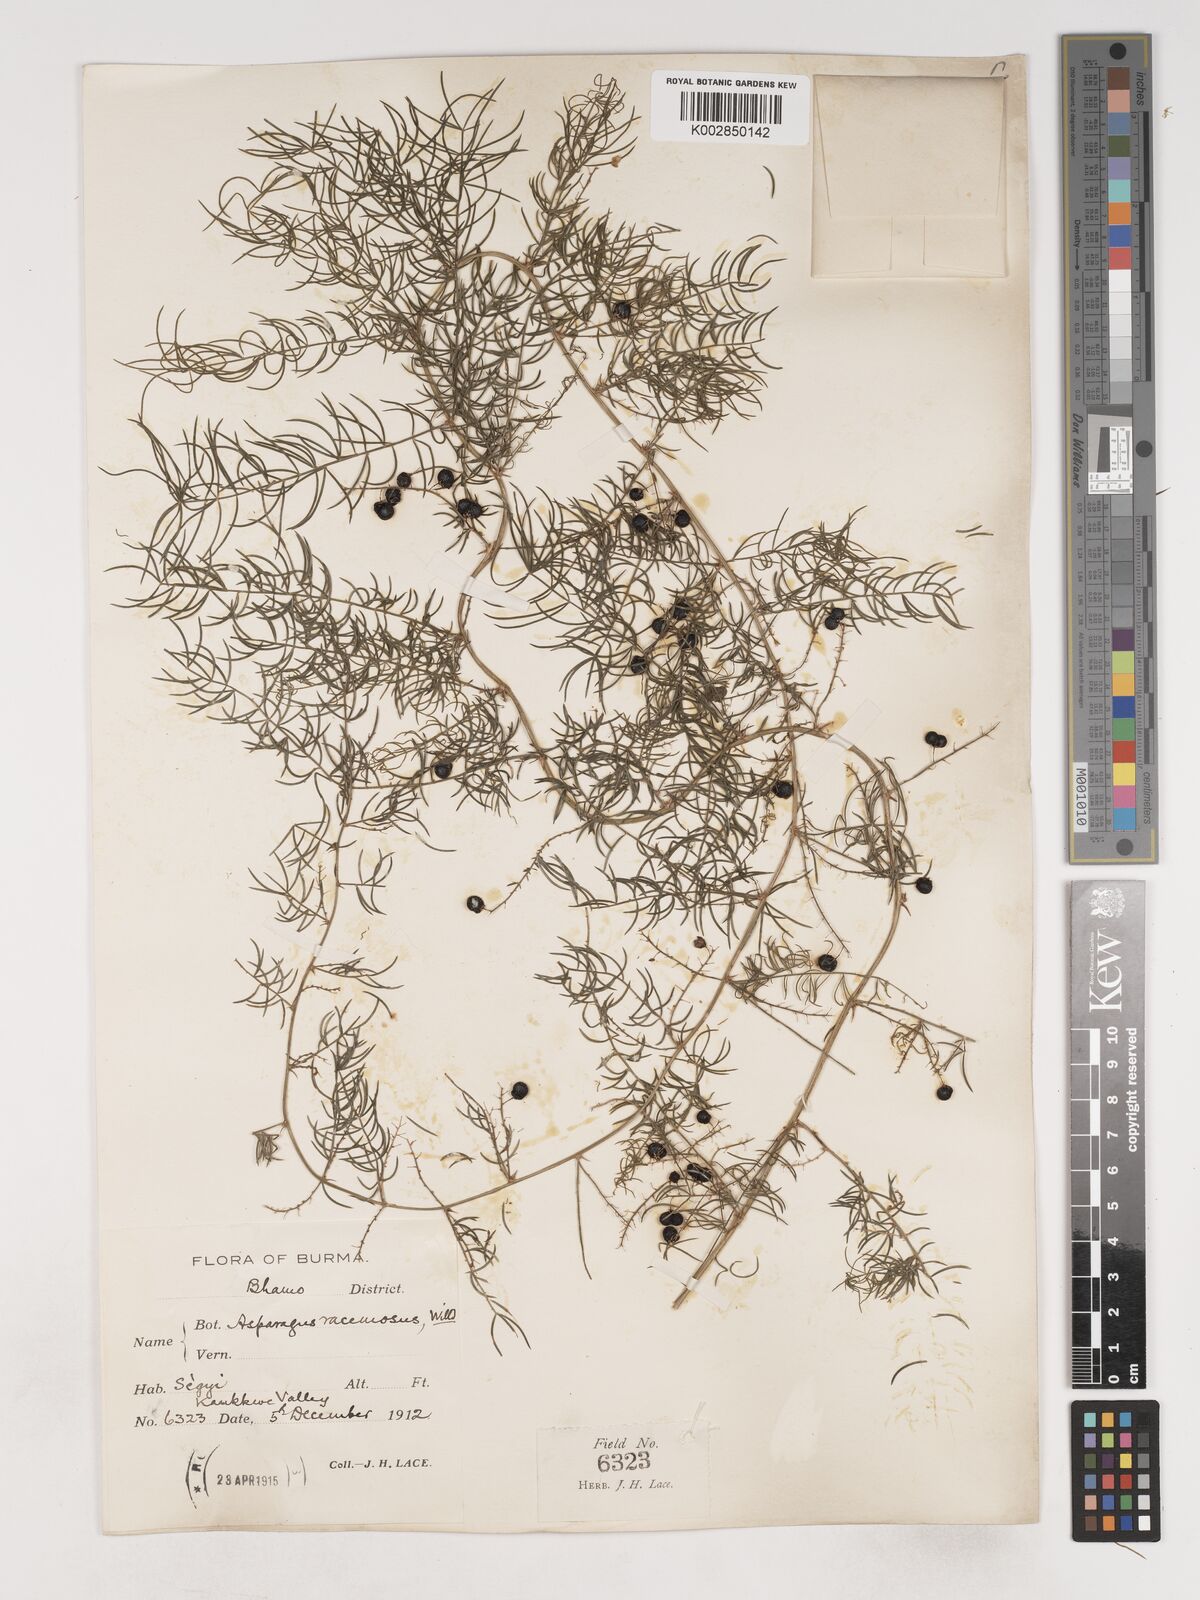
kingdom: Plantae
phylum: Tracheophyta
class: Liliopsida
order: Asparagales
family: Asparagaceae
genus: Asparagus
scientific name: Asparagus racemosus
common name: Asparagus-fern
